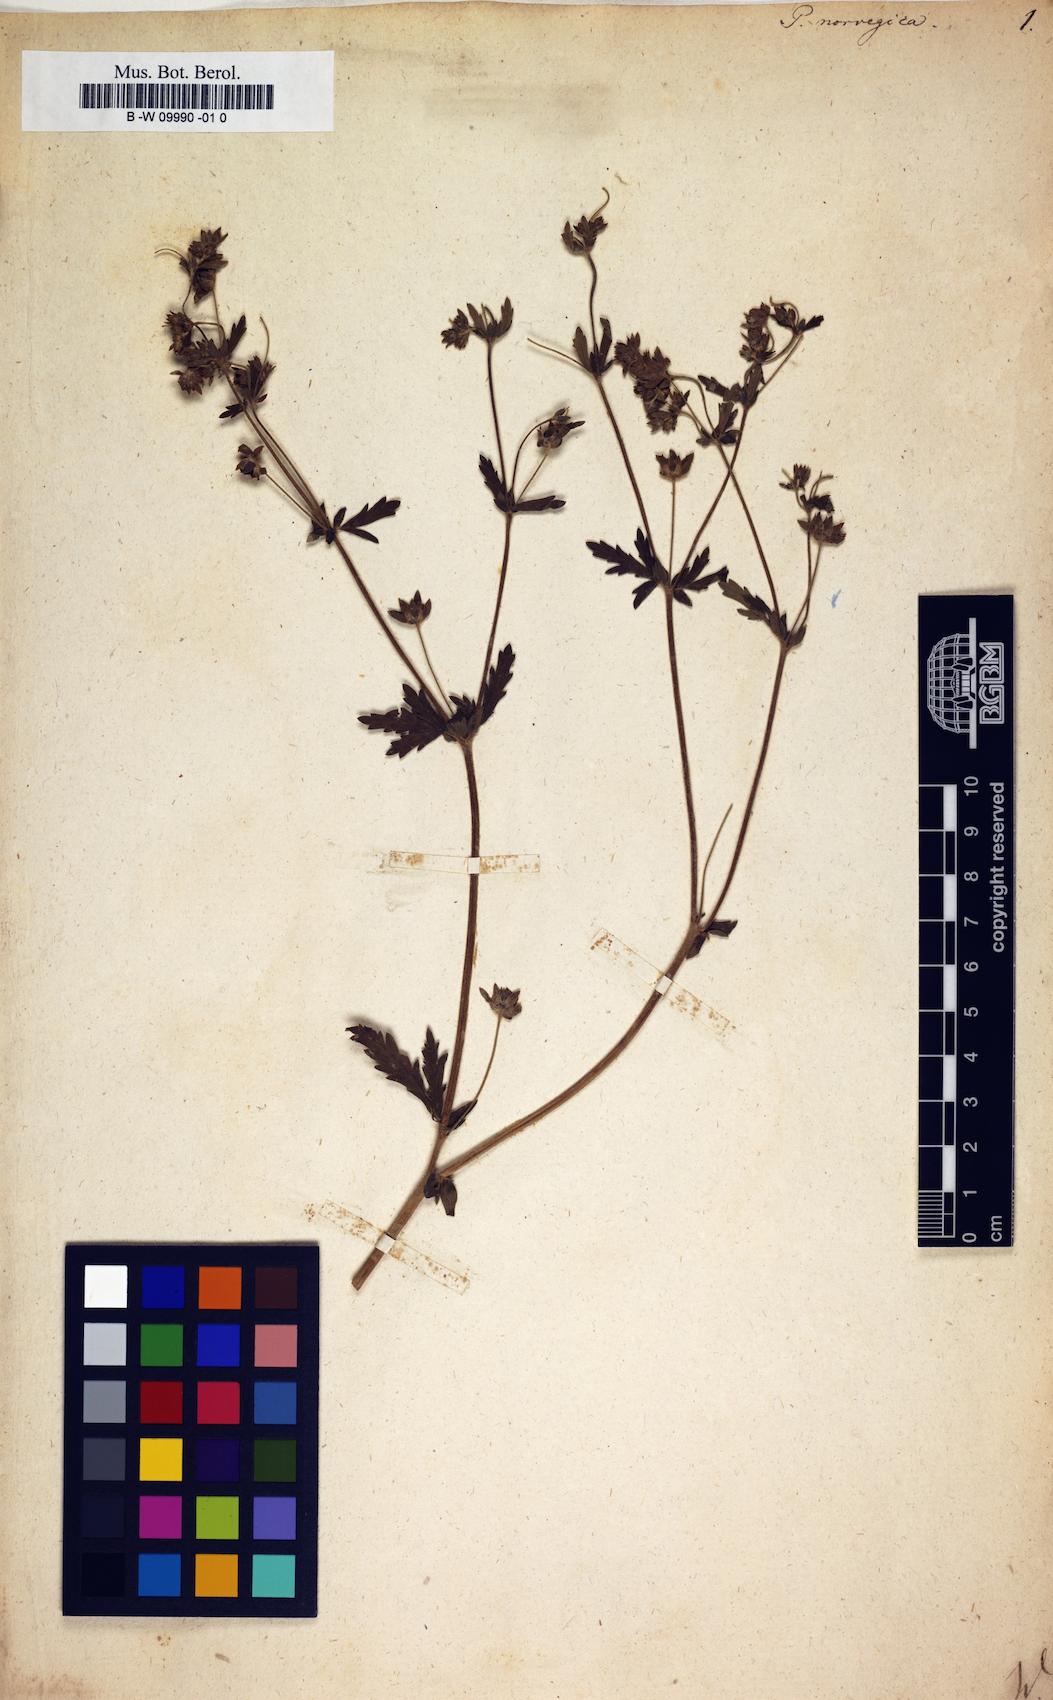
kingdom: Plantae
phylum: Tracheophyta
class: Magnoliopsida
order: Rosales
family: Rosaceae
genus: Potentilla
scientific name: Potentilla norvegica
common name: Ternate-leaved cinquefoil
